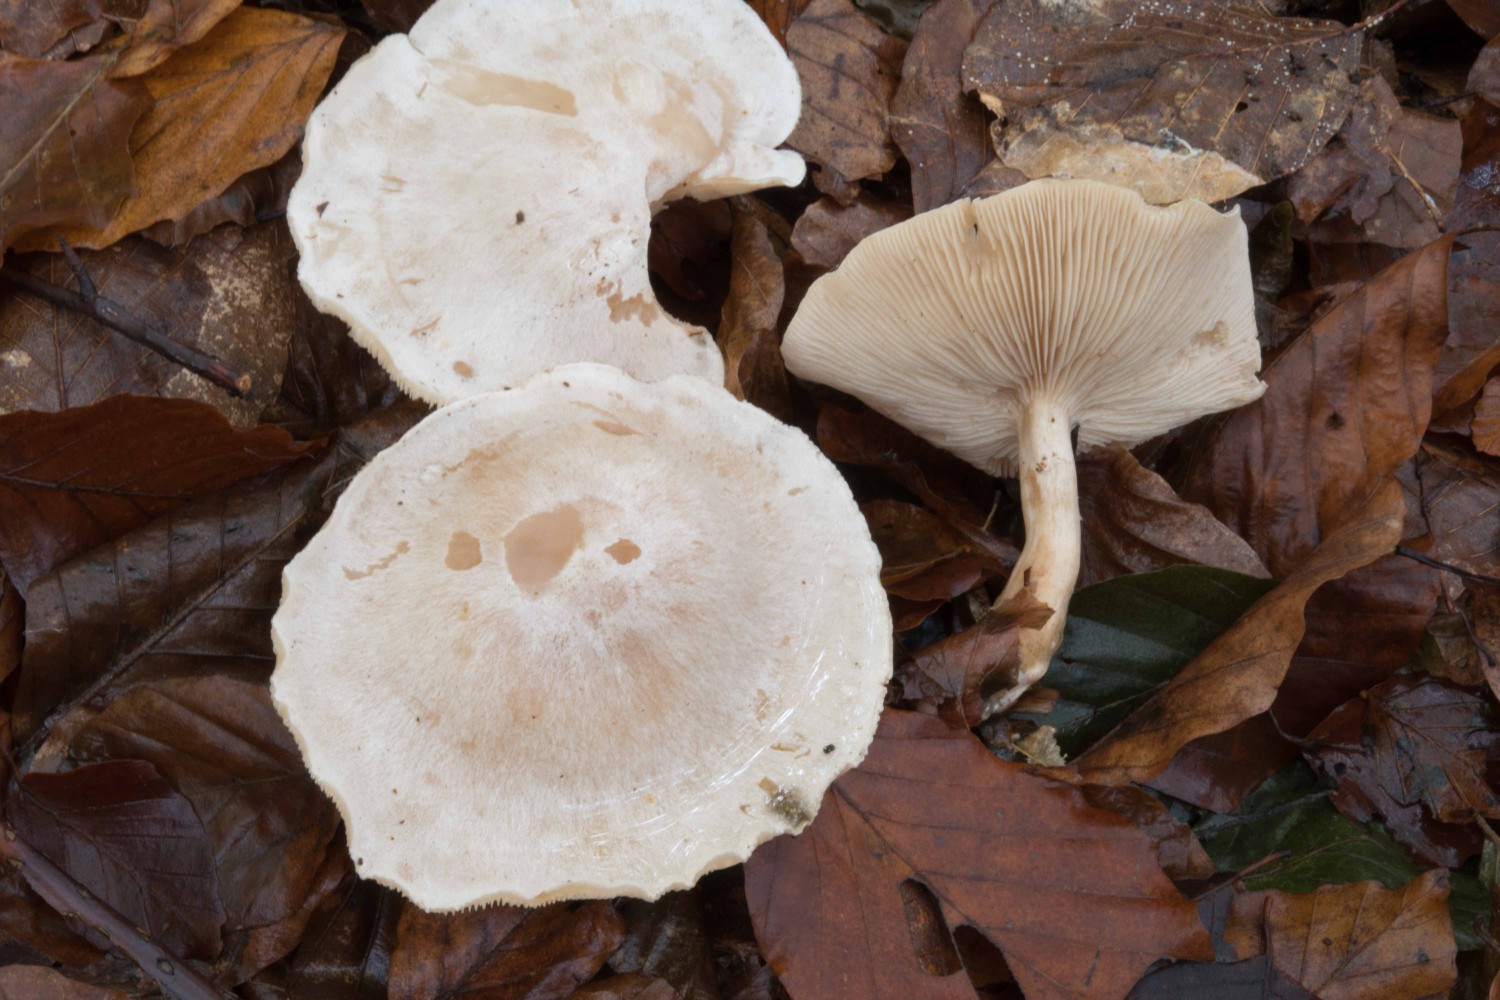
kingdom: Fungi
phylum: Basidiomycota
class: Agaricomycetes
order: Agaricales
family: Tricholomataceae
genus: Clitocybe
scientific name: Clitocybe phyllophila
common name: løv-tragthat
